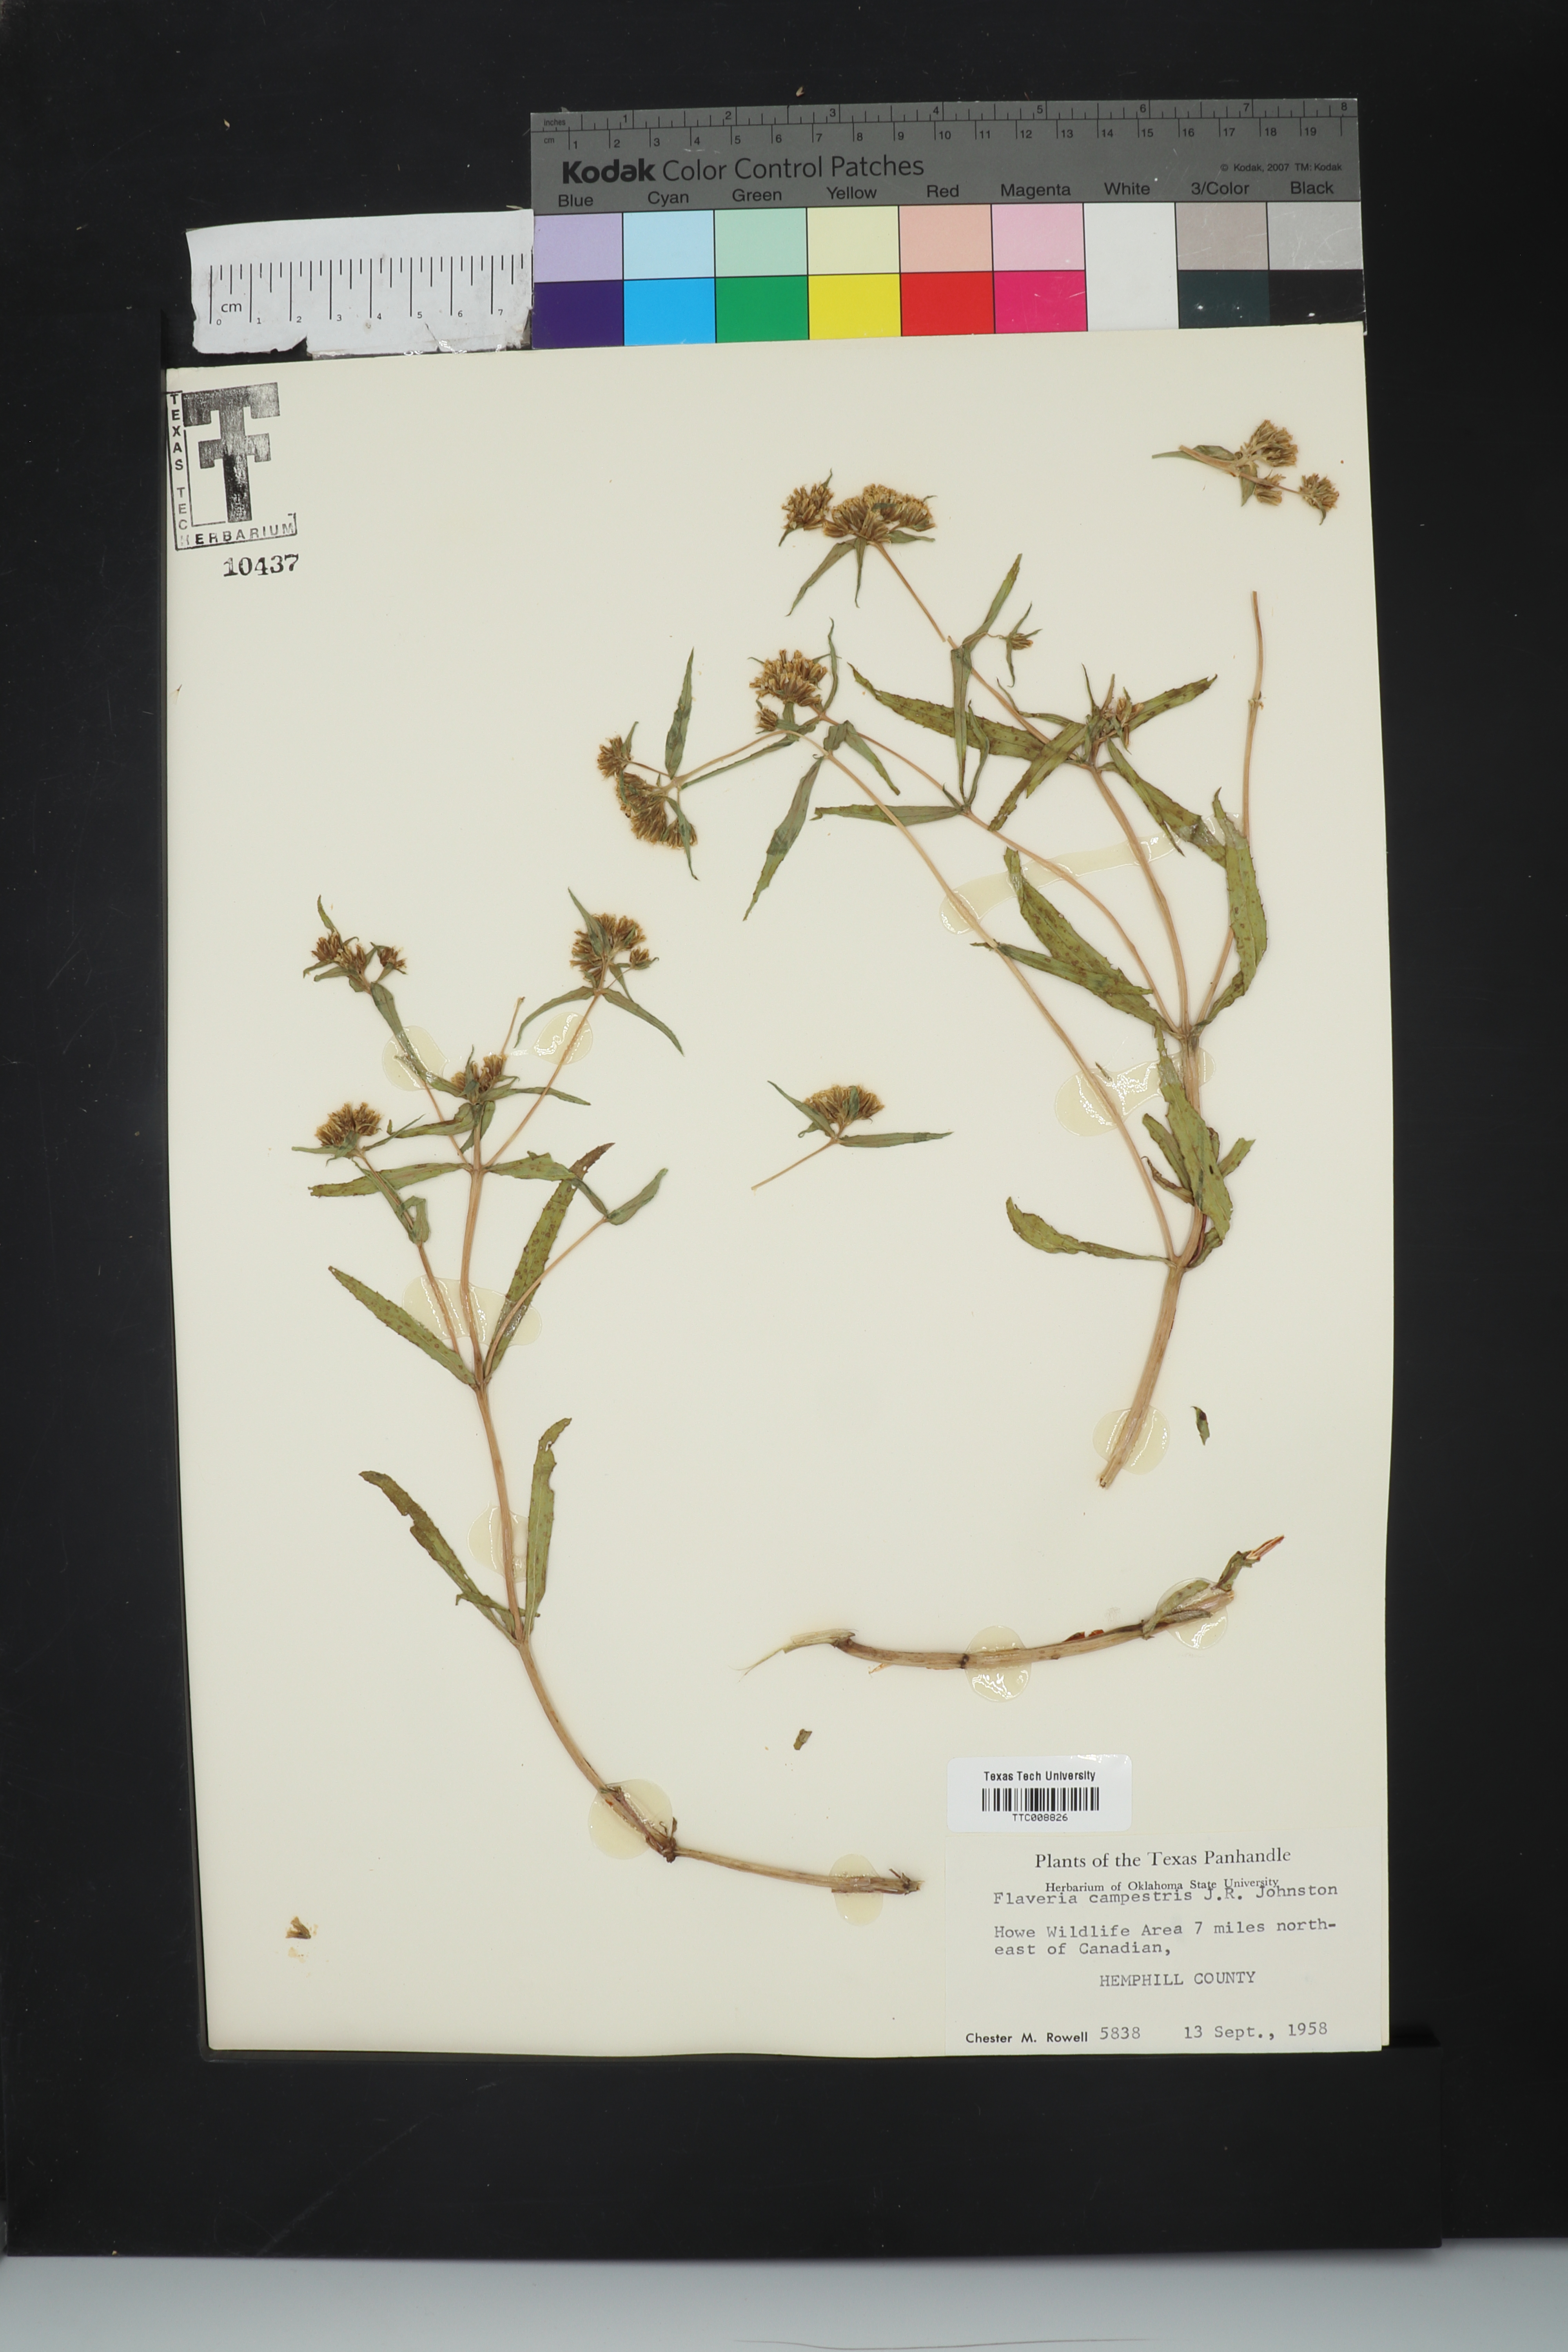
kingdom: Plantae
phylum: Tracheophyta
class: Magnoliopsida
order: Asterales
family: Asteraceae
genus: Flaveria
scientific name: Flaveria campestris
